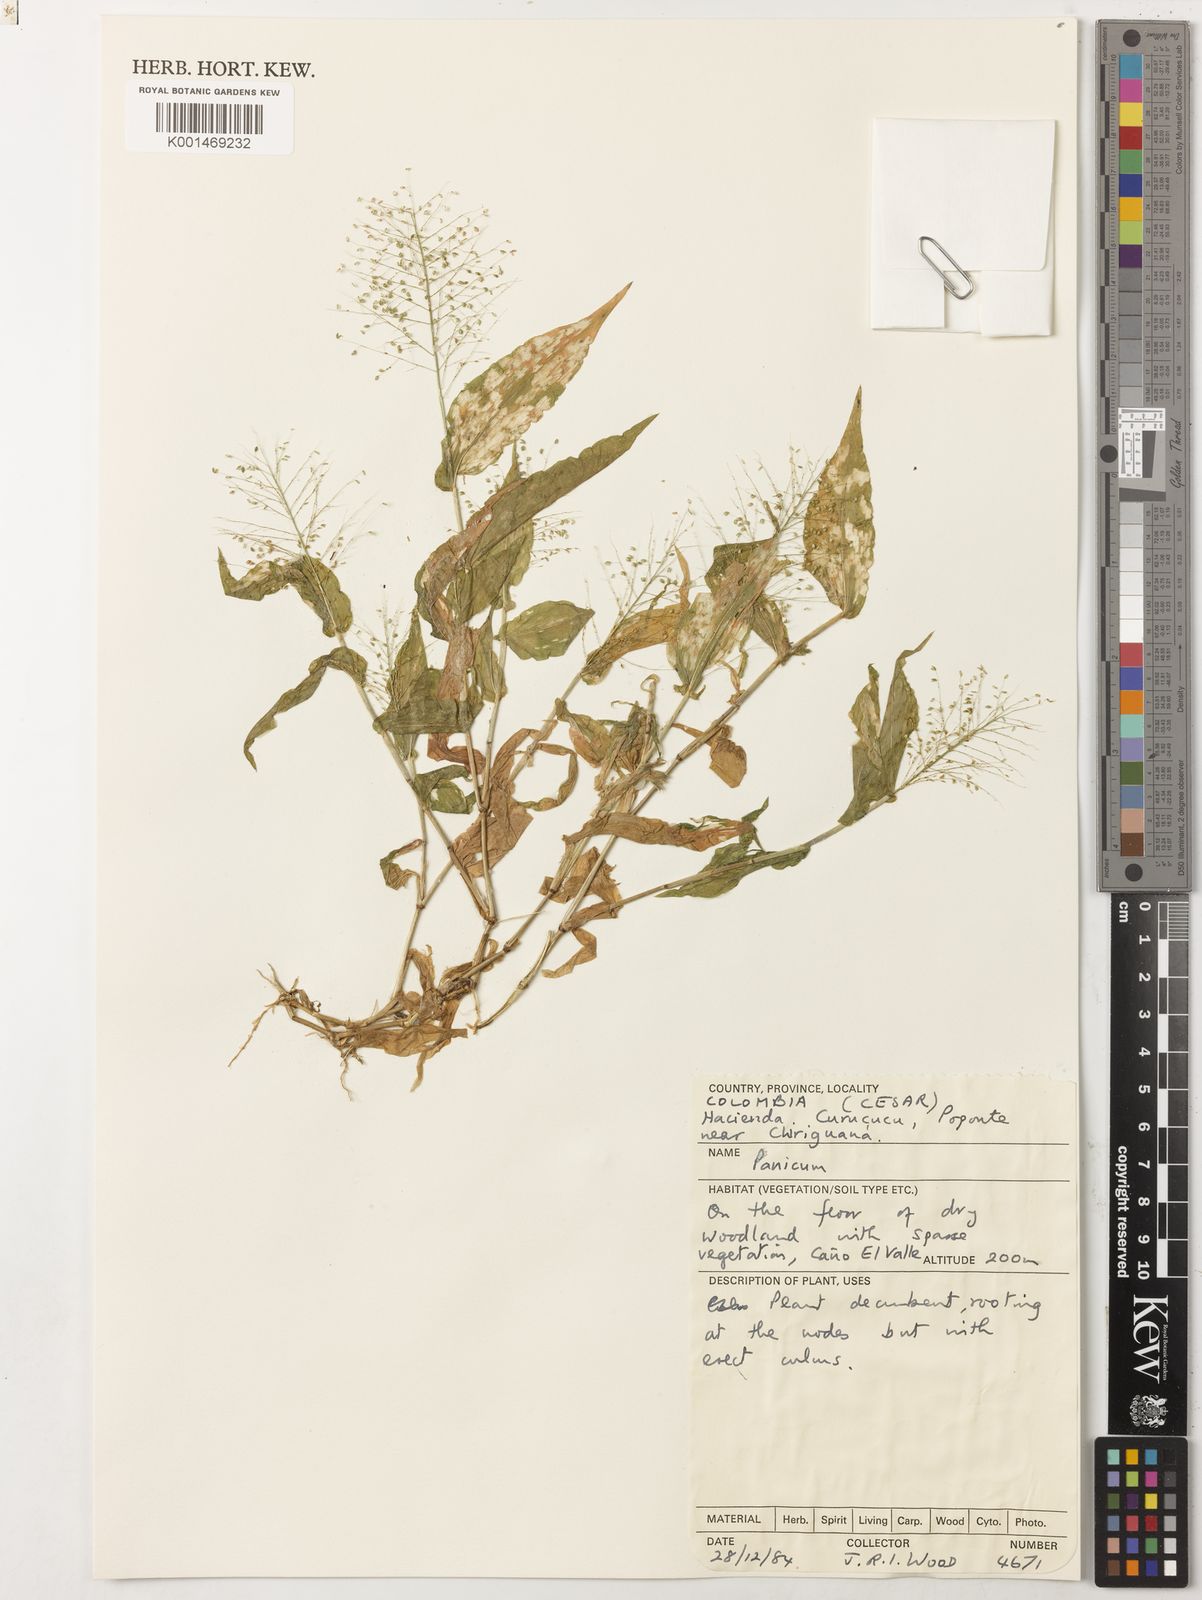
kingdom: Plantae
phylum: Tracheophyta
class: Liliopsida
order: Poales
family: Poaceae
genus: Panicum
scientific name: Panicum hirtum
